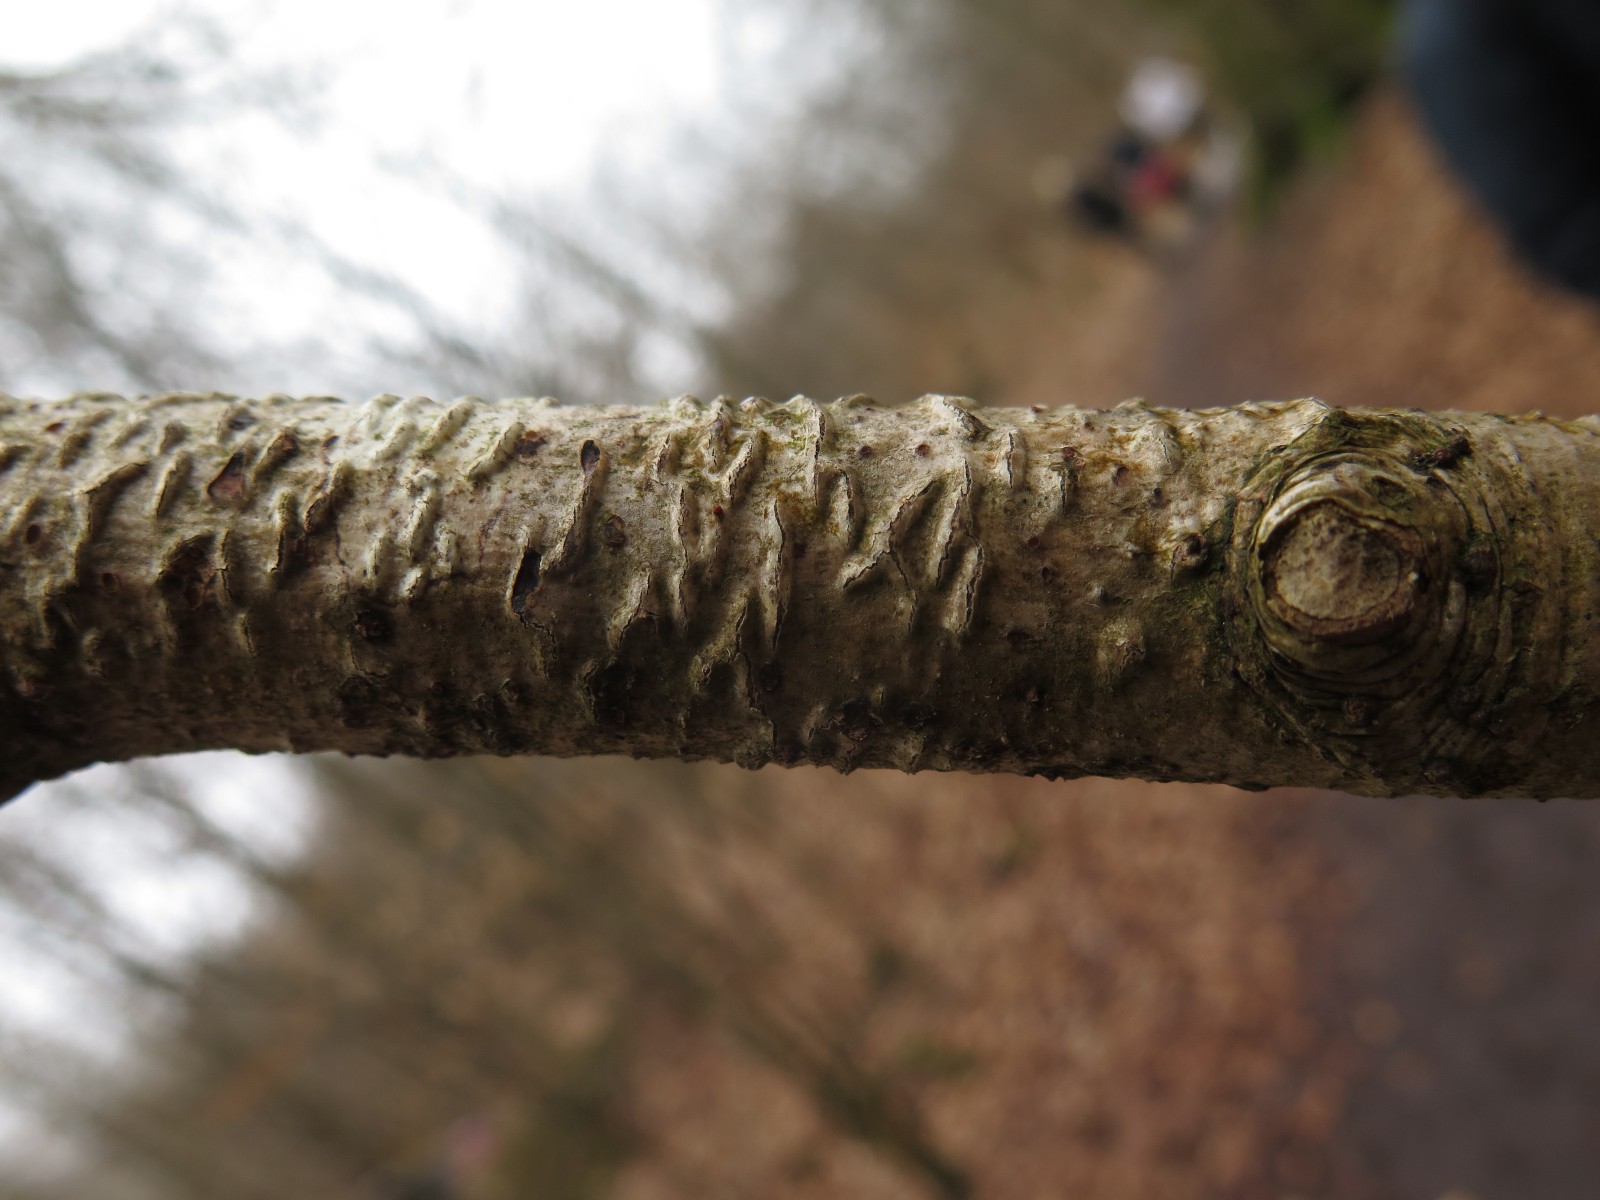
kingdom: Fungi
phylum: Ascomycota
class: Leotiomycetes
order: Rhytismatales
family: Rhytismataceae
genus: Colpoma
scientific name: Colpoma quercinum
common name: ege-sprækkeskive
